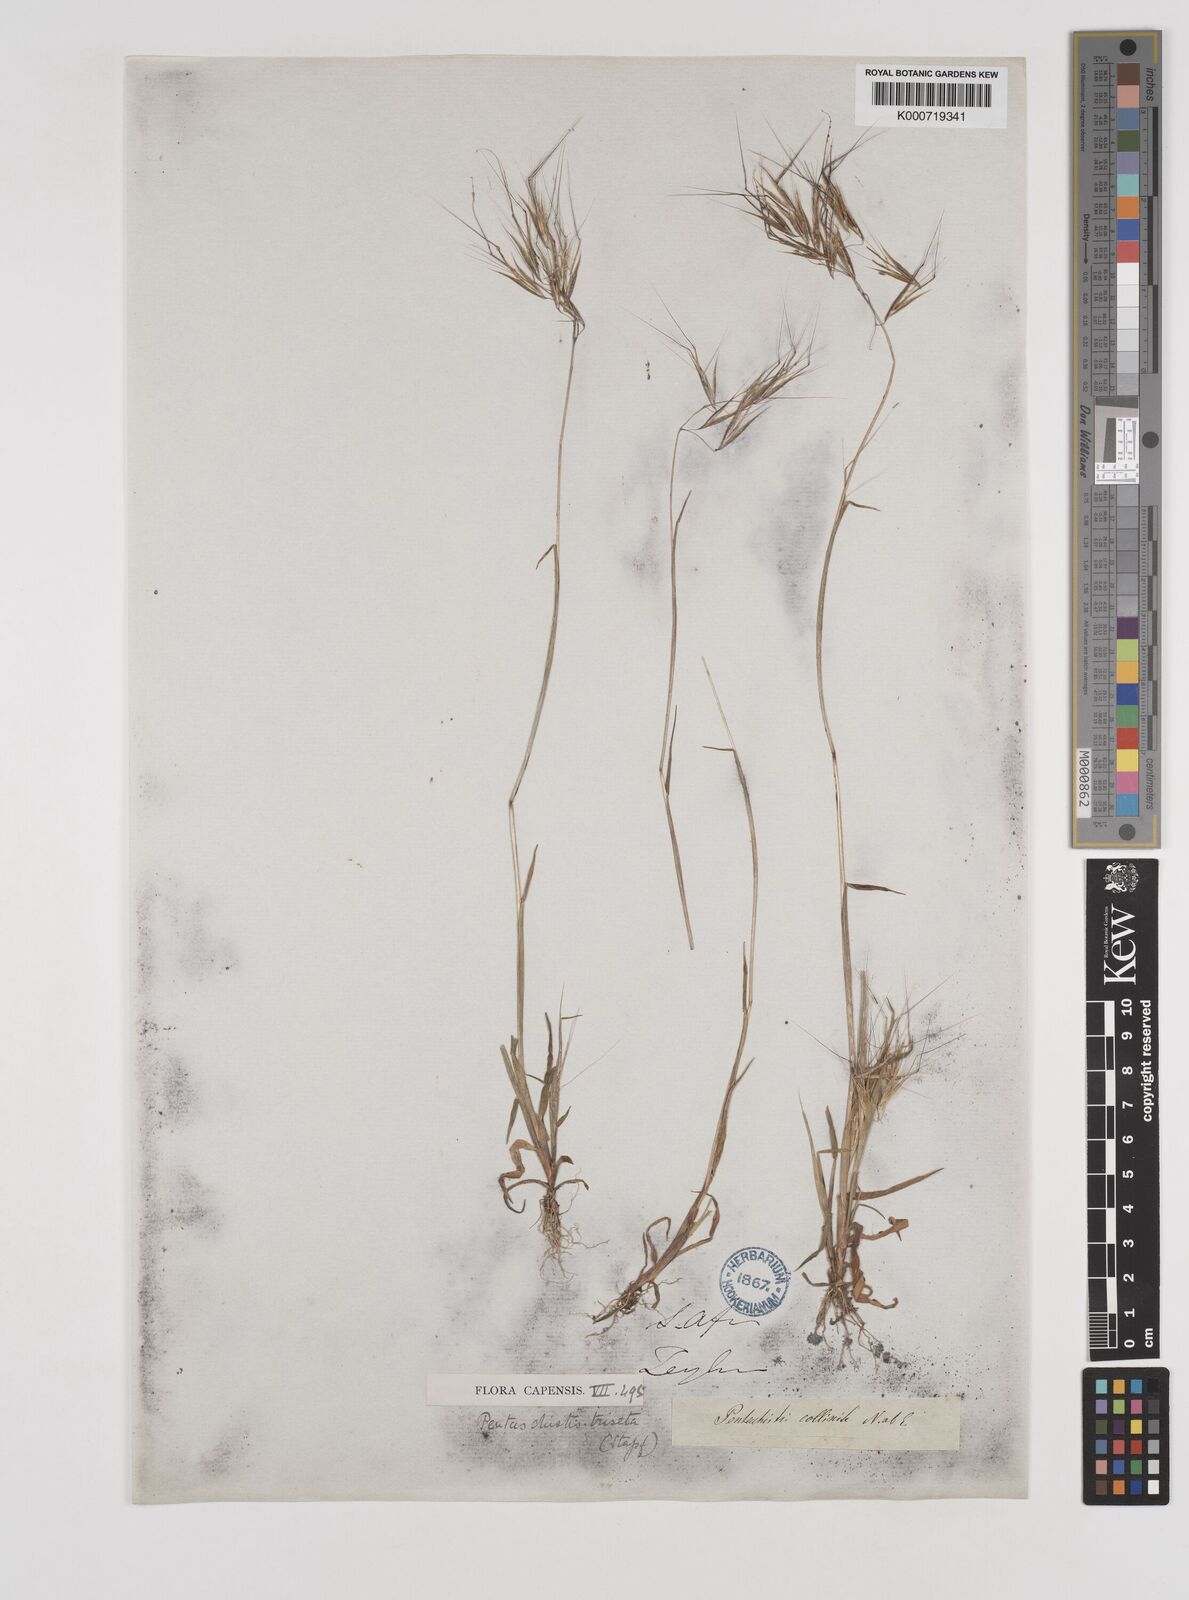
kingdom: Plantae
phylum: Tracheophyta
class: Liliopsida
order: Poales
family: Poaceae
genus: Pentameris
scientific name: Pentameris triseta
